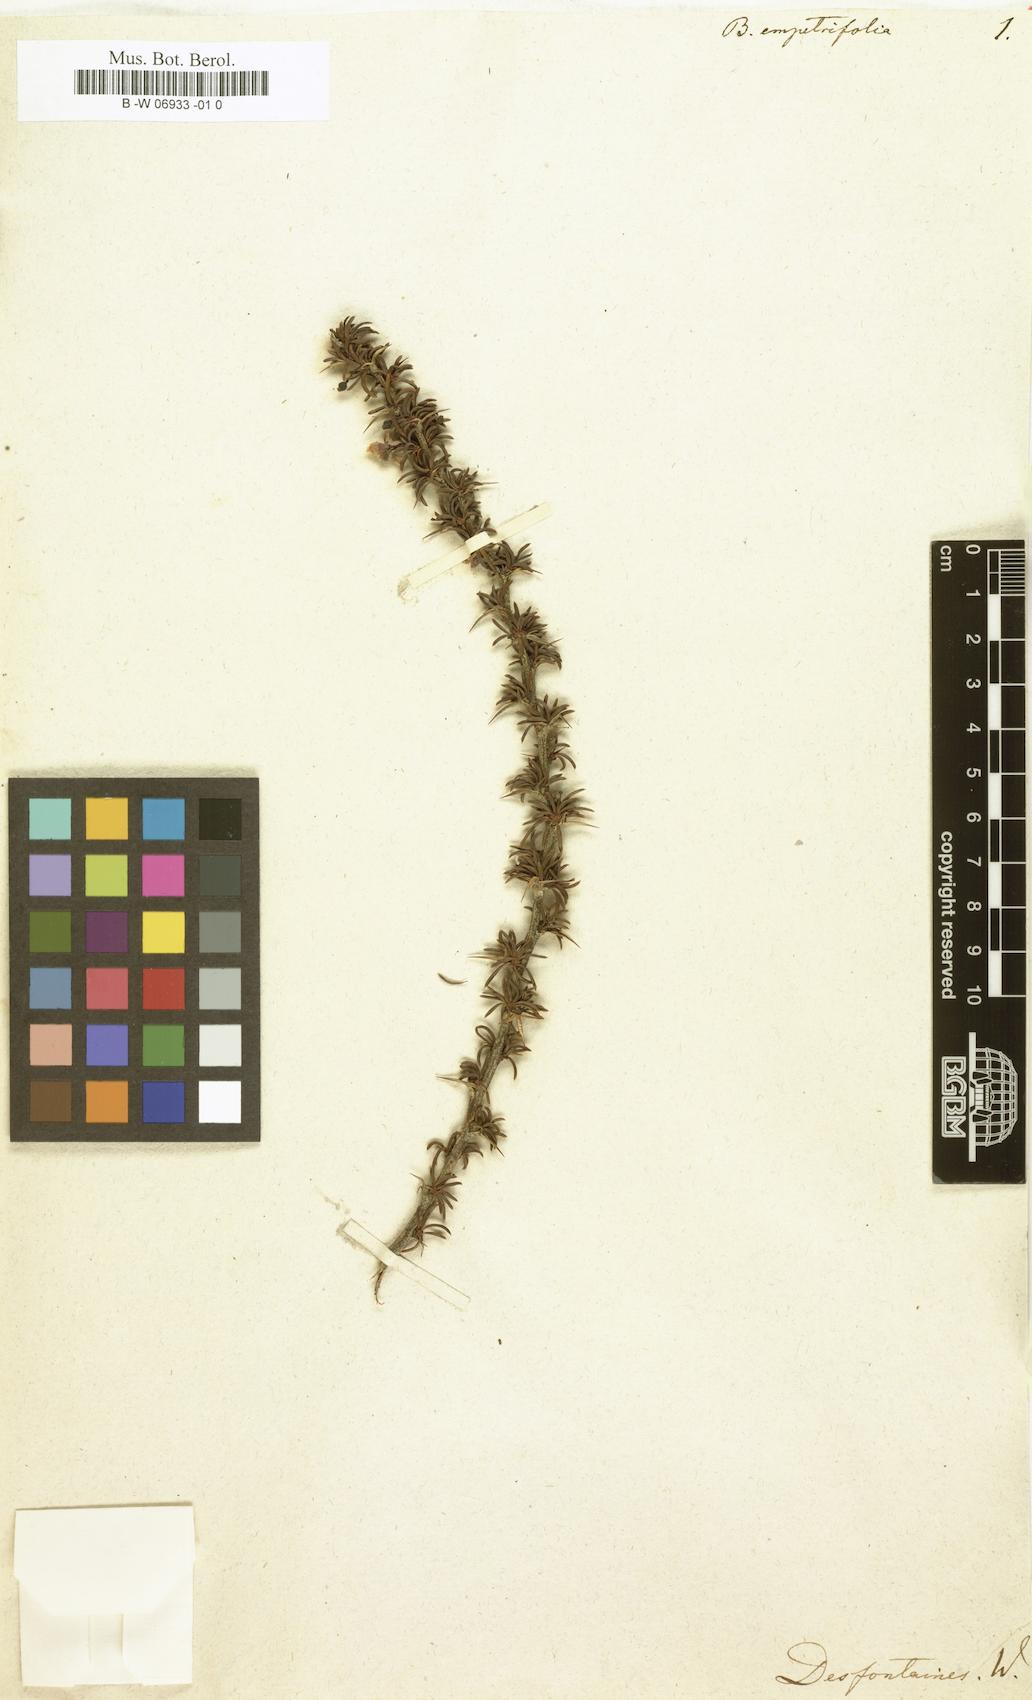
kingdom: Plantae
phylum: Tracheophyta
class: Magnoliopsida
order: Ranunculales
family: Berberidaceae
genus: Berberis
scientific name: Berberis empetrifolia
